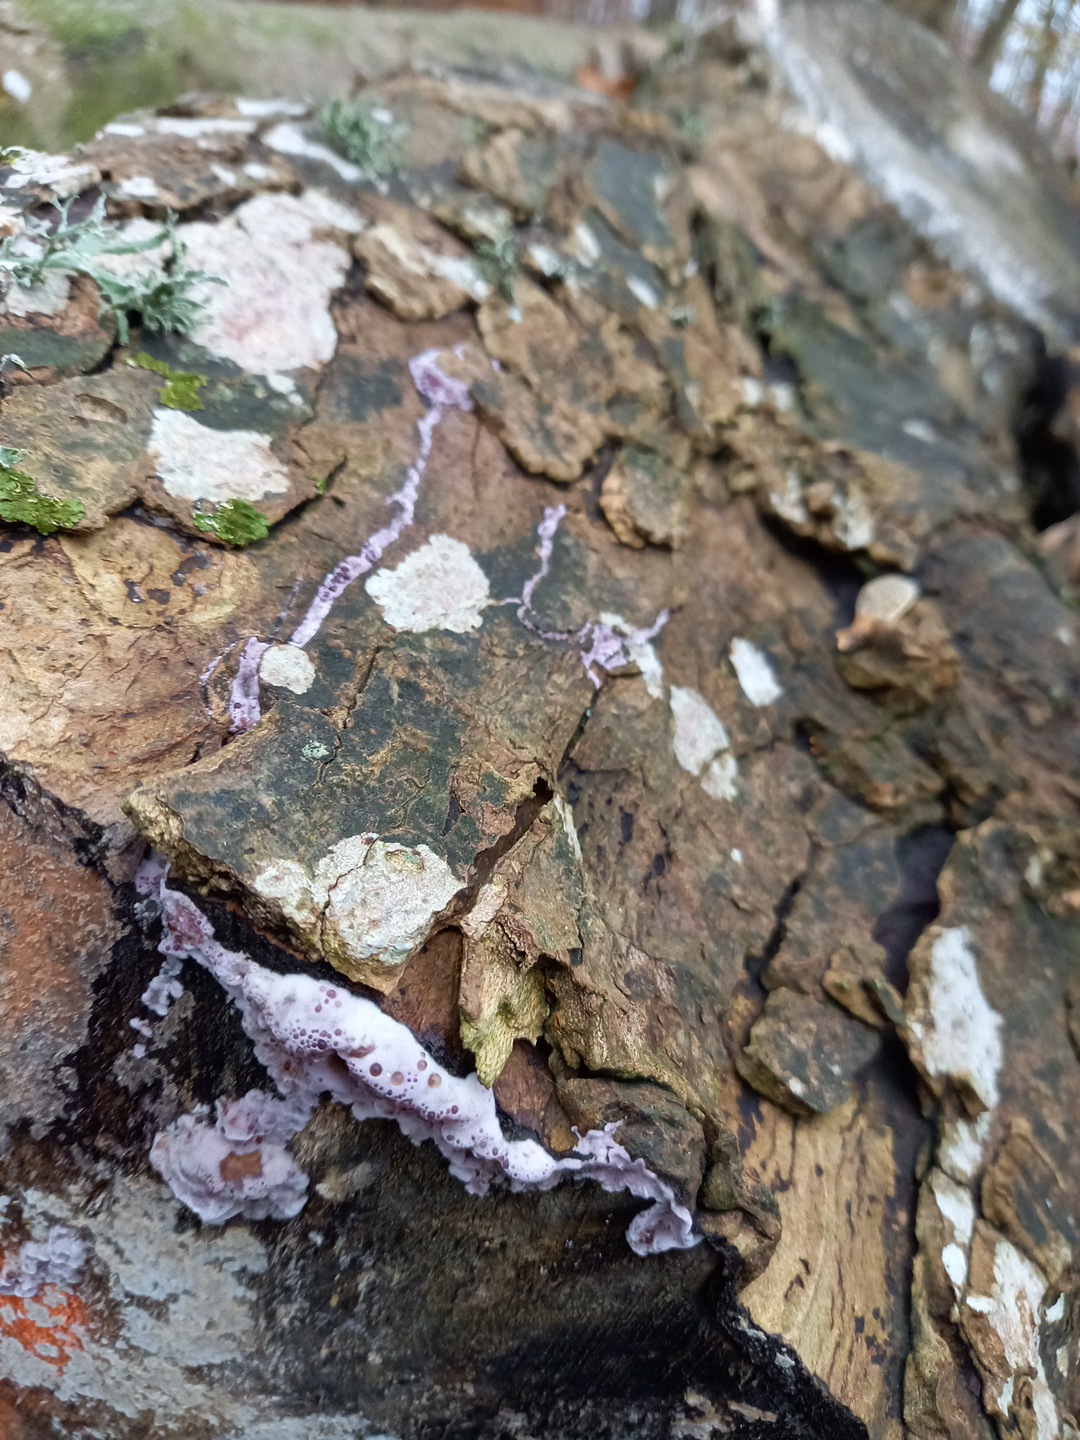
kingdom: Fungi
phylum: Basidiomycota
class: Agaricomycetes
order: Agaricales
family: Cyphellaceae
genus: Chondrostereum
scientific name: Chondrostereum purpureum
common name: purpurlædersvamp
